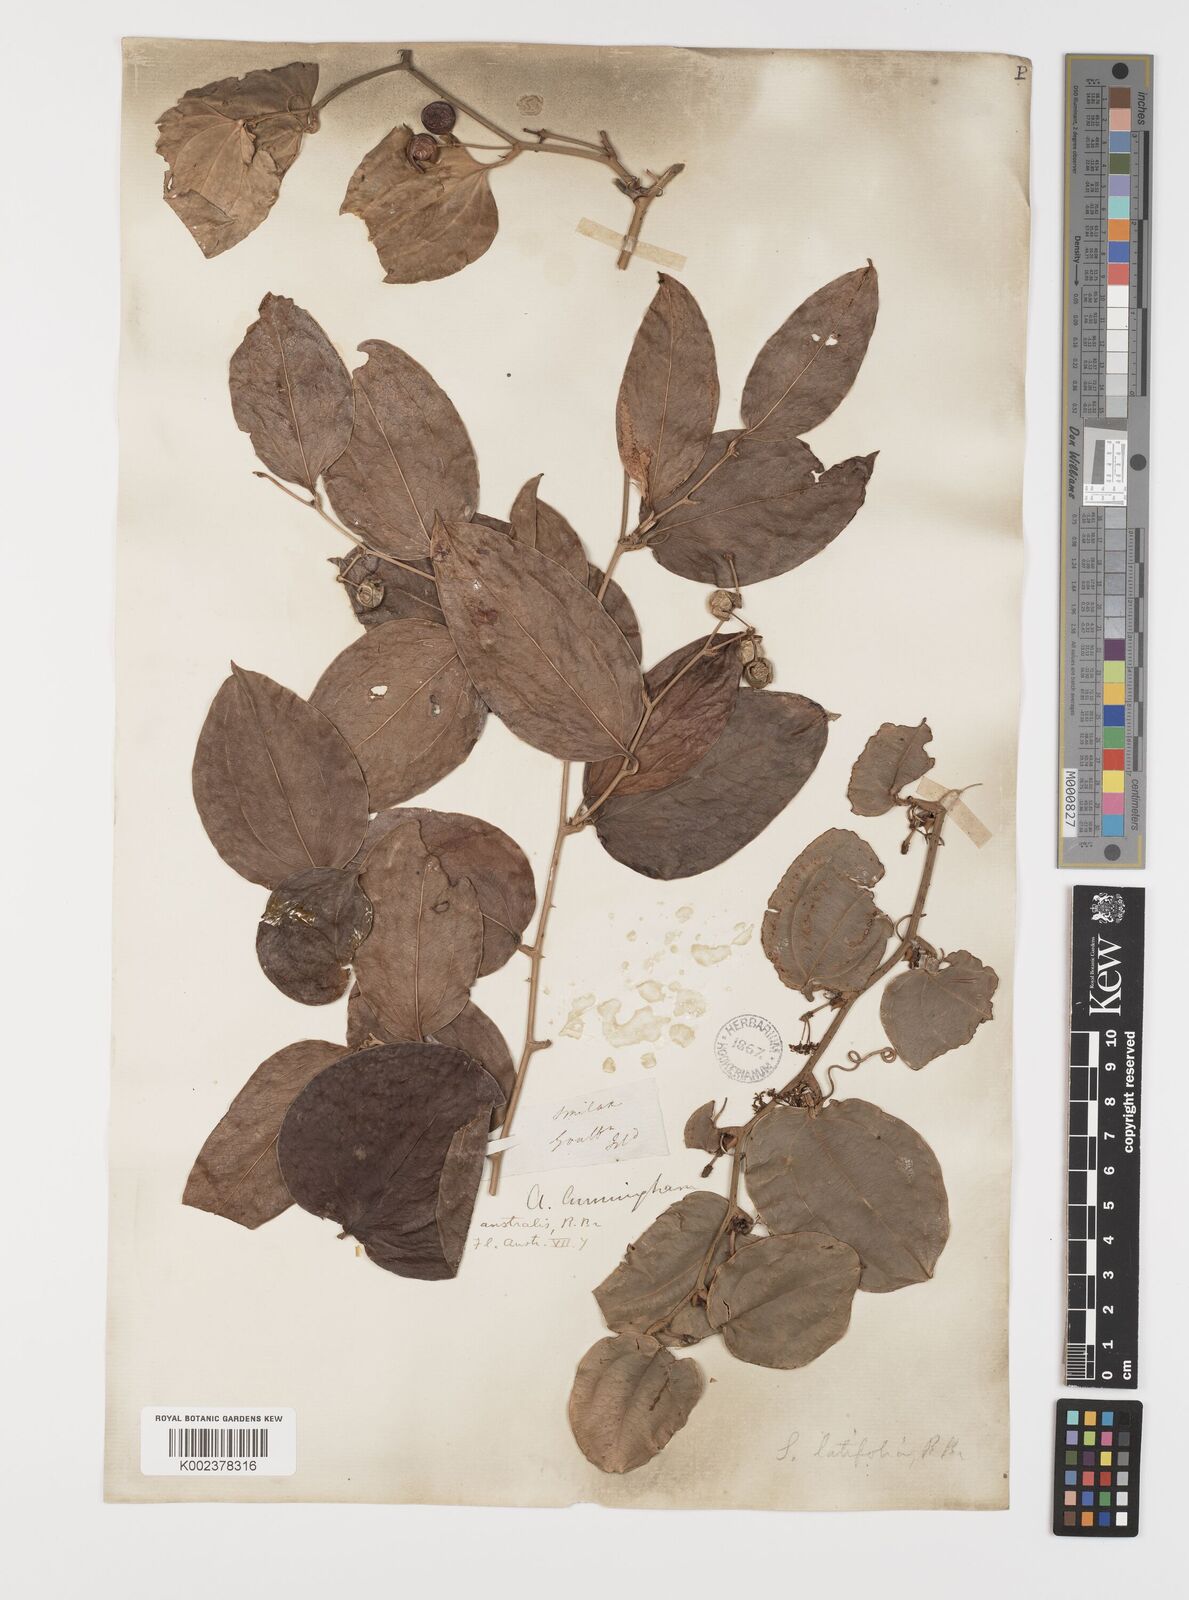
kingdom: Plantae
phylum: Tracheophyta
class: Liliopsida
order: Liliales
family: Smilacaceae
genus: Smilax
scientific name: Smilax australis
